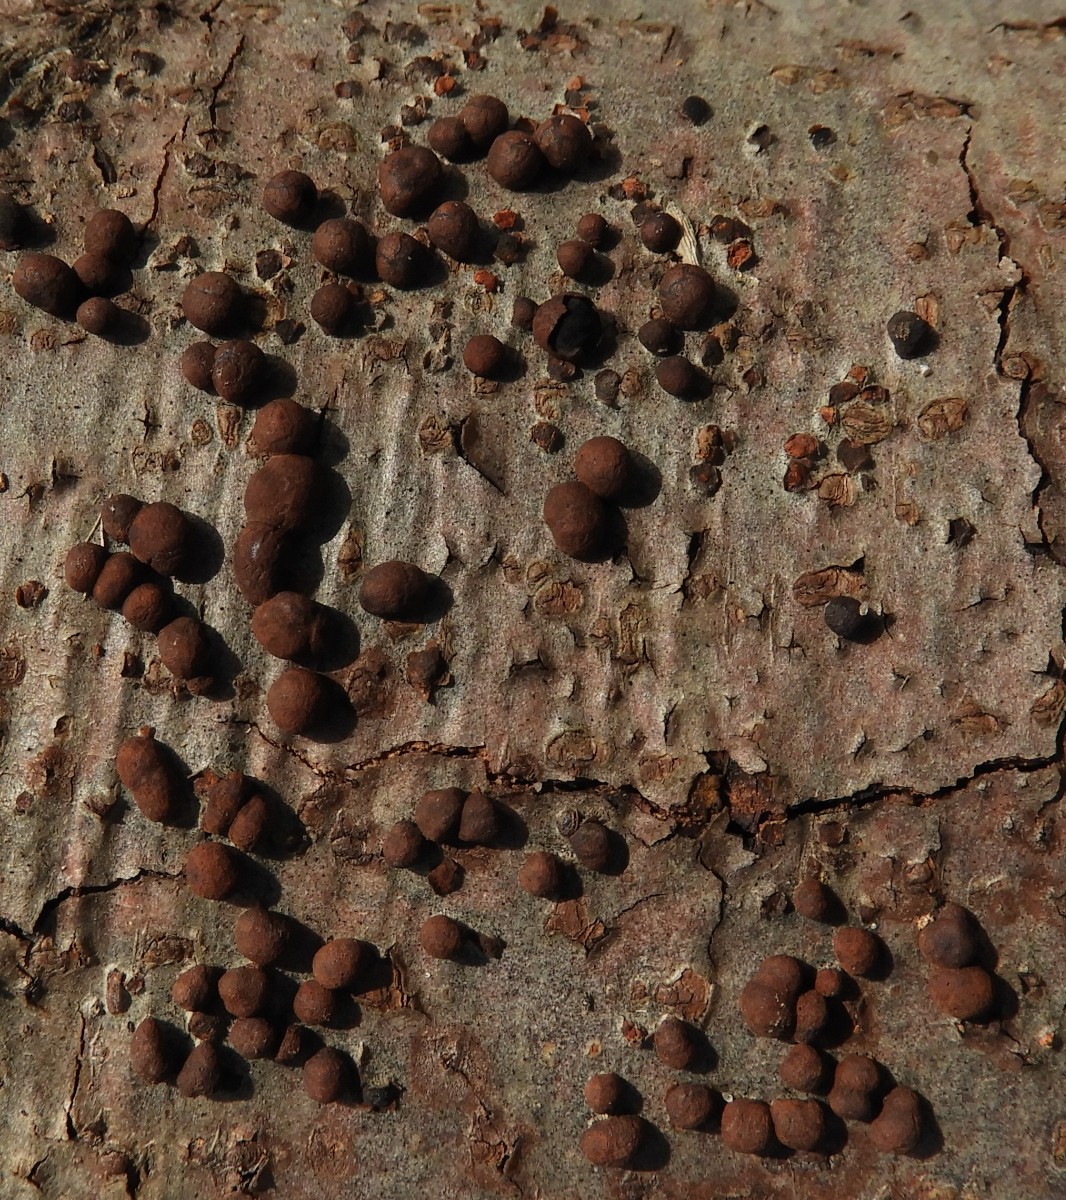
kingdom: Fungi
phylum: Ascomycota
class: Sordariomycetes
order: Xylariales
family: Hypoxylaceae
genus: Hypoxylon
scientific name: Hypoxylon fragiforme
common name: kuljordbær
